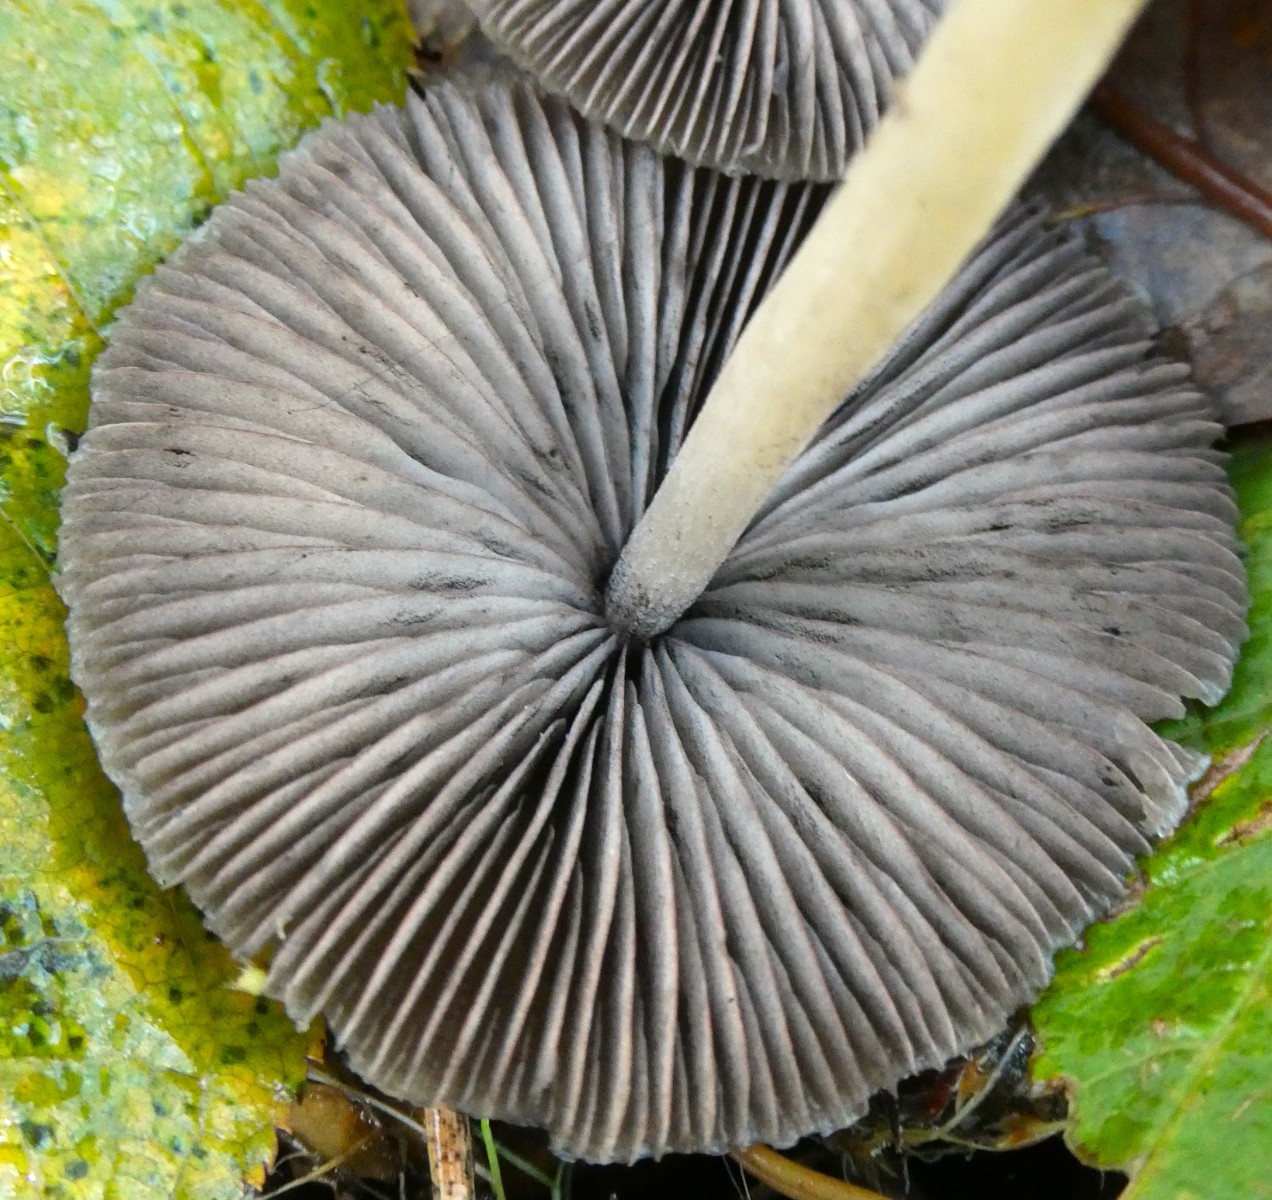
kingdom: Fungi
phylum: Basidiomycota
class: Agaricomycetes
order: Agaricales
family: Psathyrellaceae
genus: Psathyrella
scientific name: Psathyrella microrhiza
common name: rod-mørkhat
